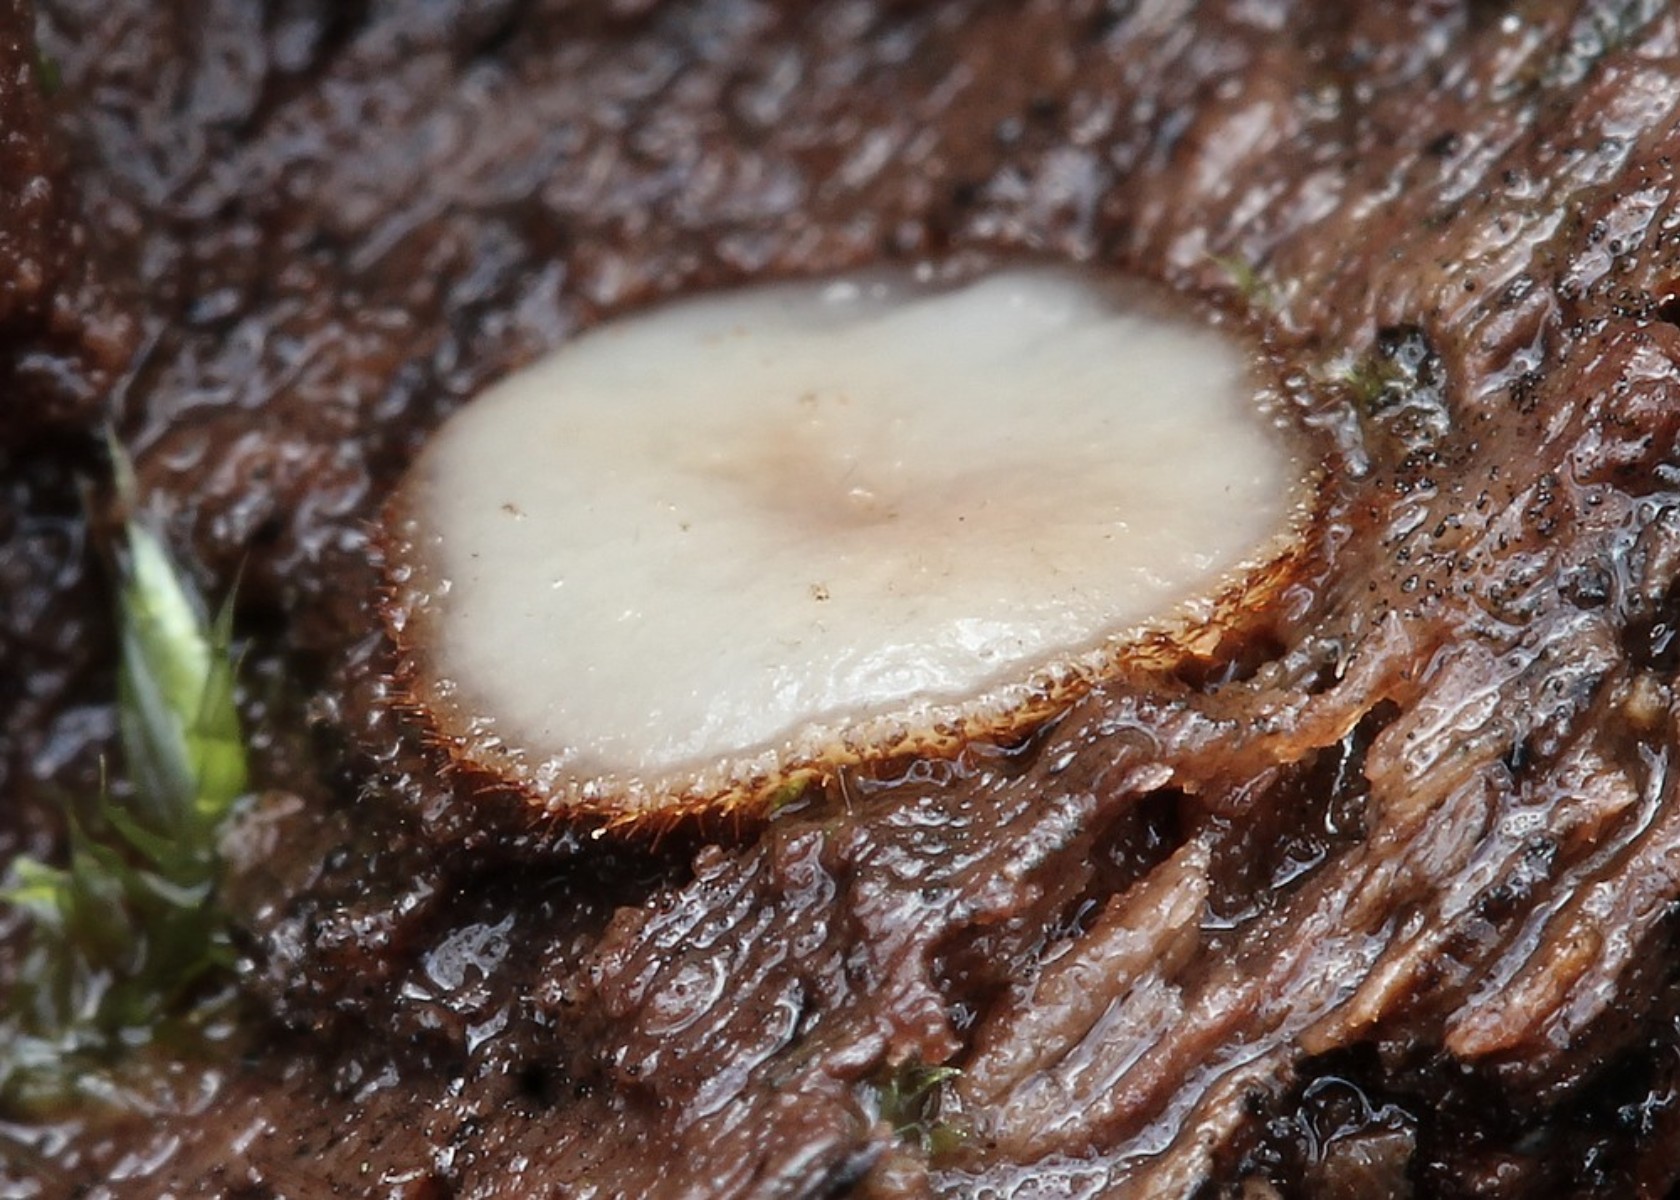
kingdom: Fungi
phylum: Ascomycota
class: Pezizomycetes
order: Pezizales
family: Pyronemataceae
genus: Scutellinia
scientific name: Scutellinia
